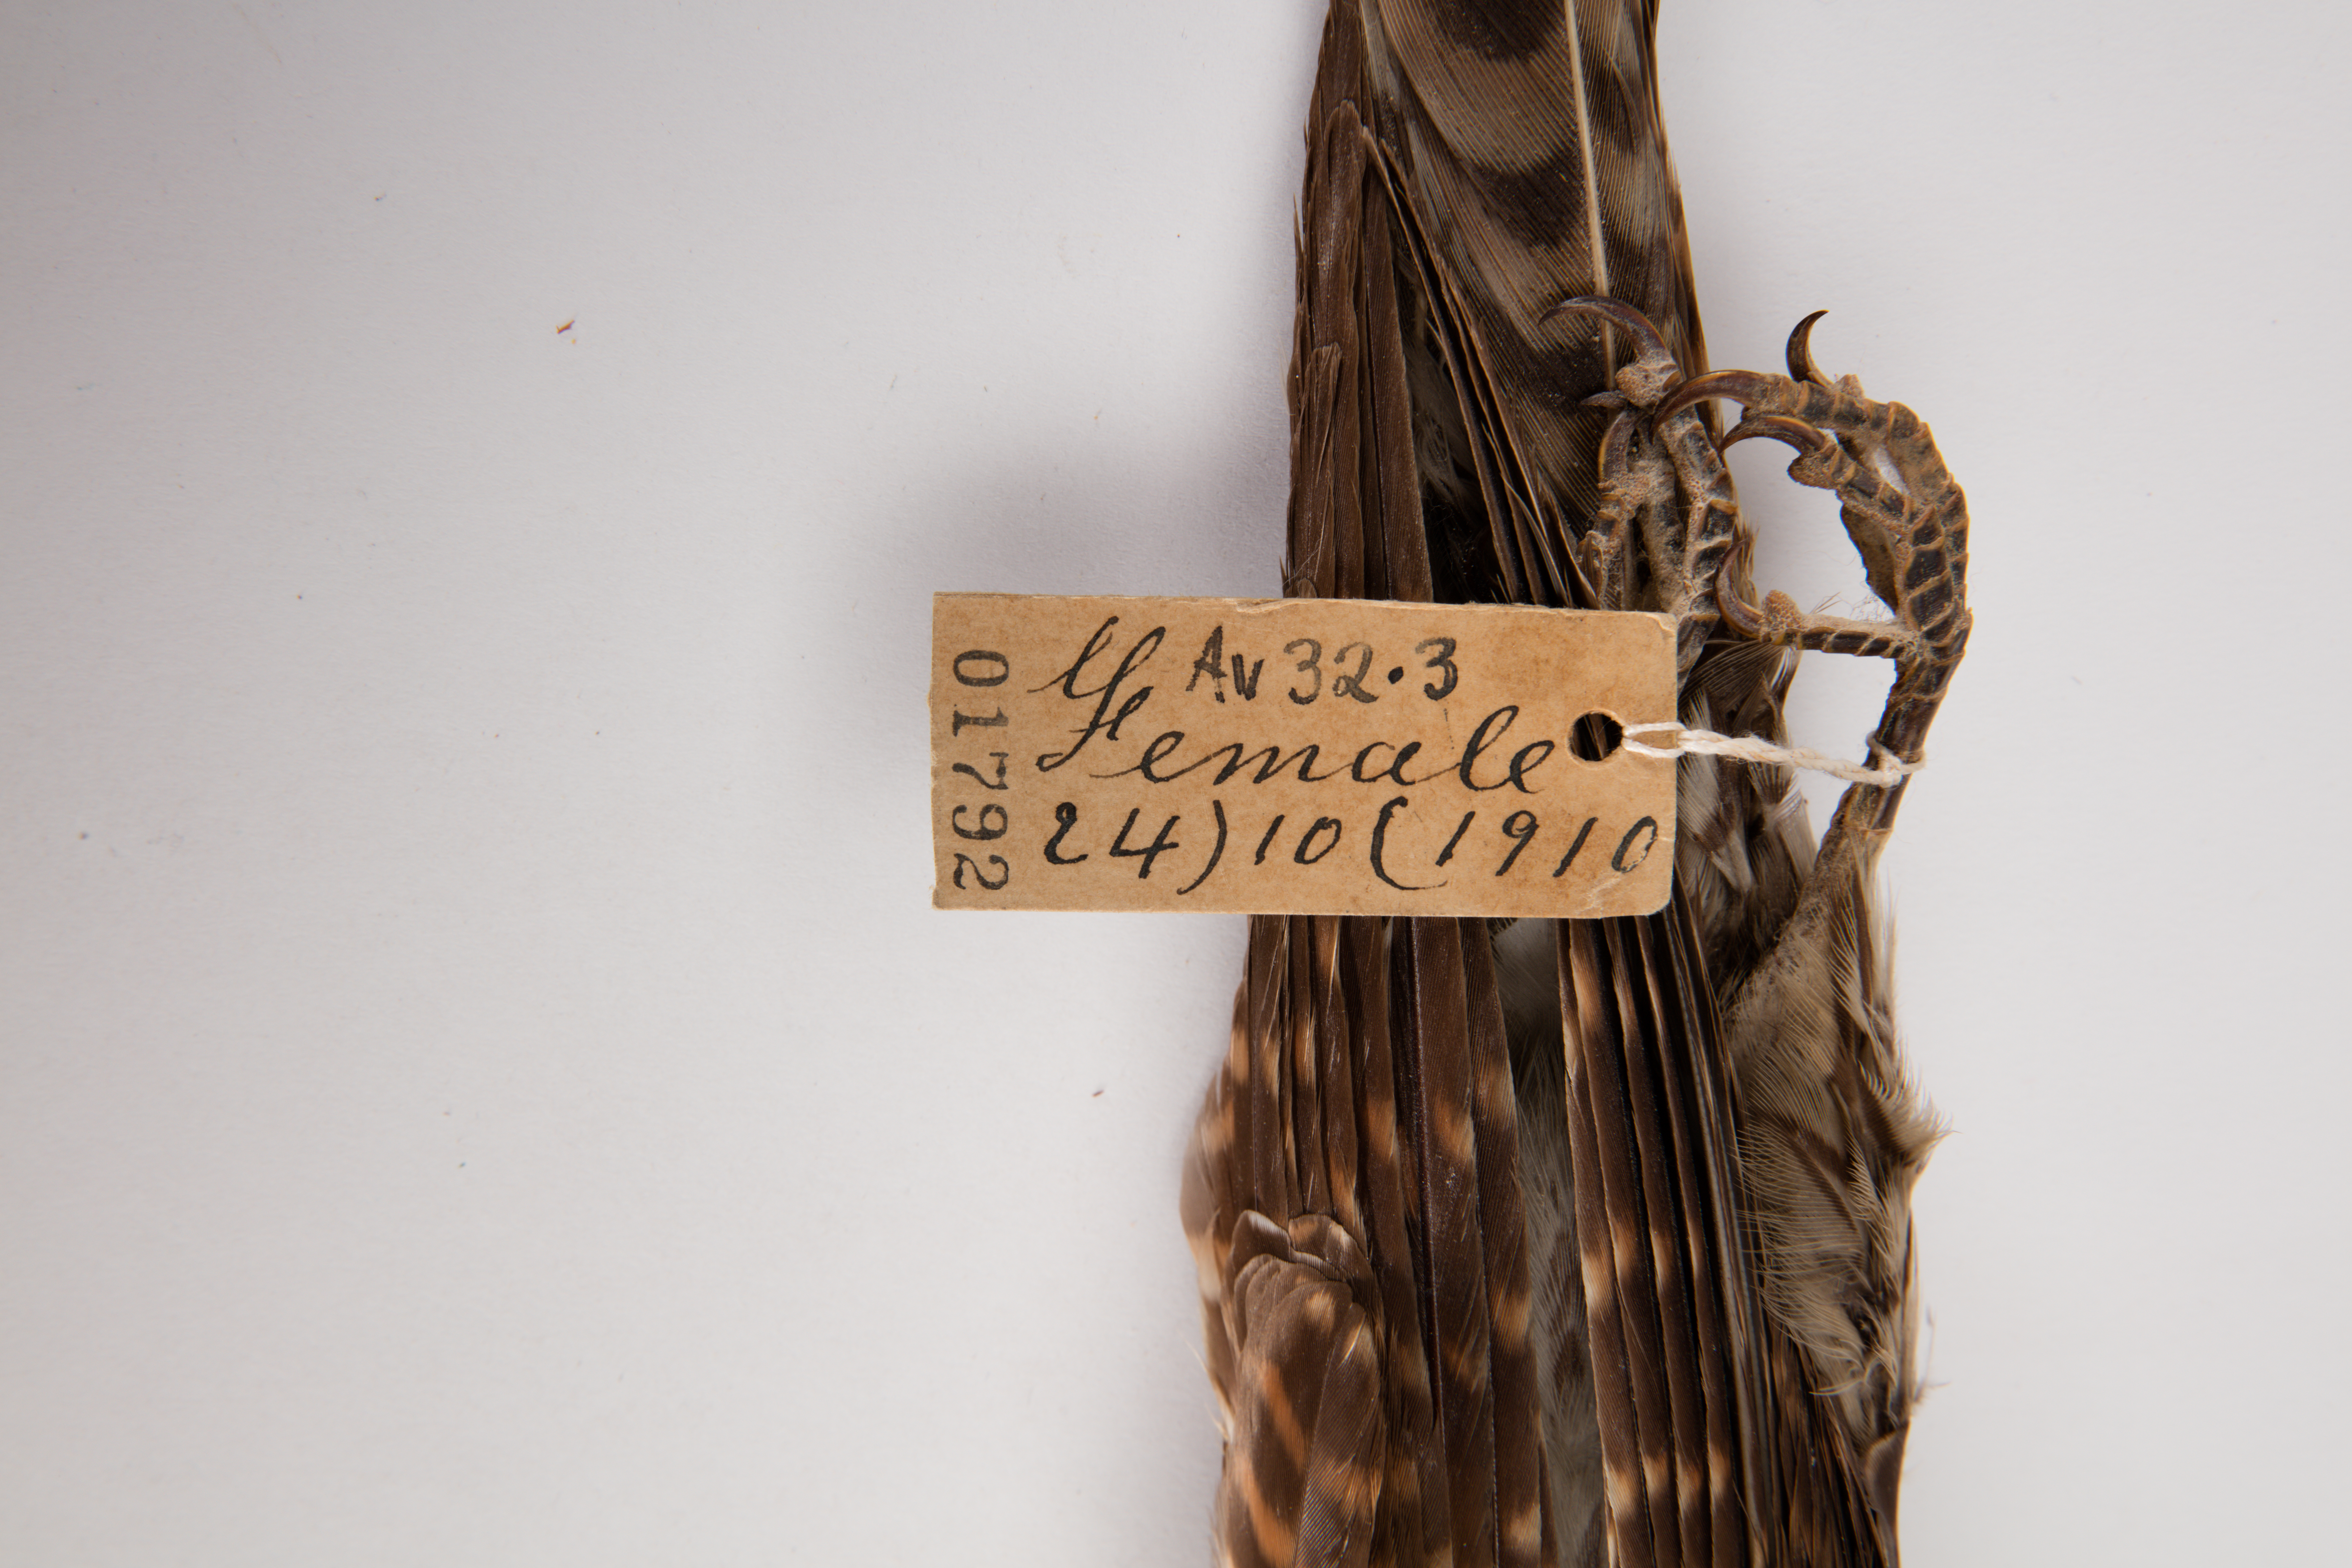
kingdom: Animalia
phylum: Chordata
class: Aves
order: Cuculiformes
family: Cuculidae
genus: Urodynamis
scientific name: Urodynamis taitensis
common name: Long-tailed koel
